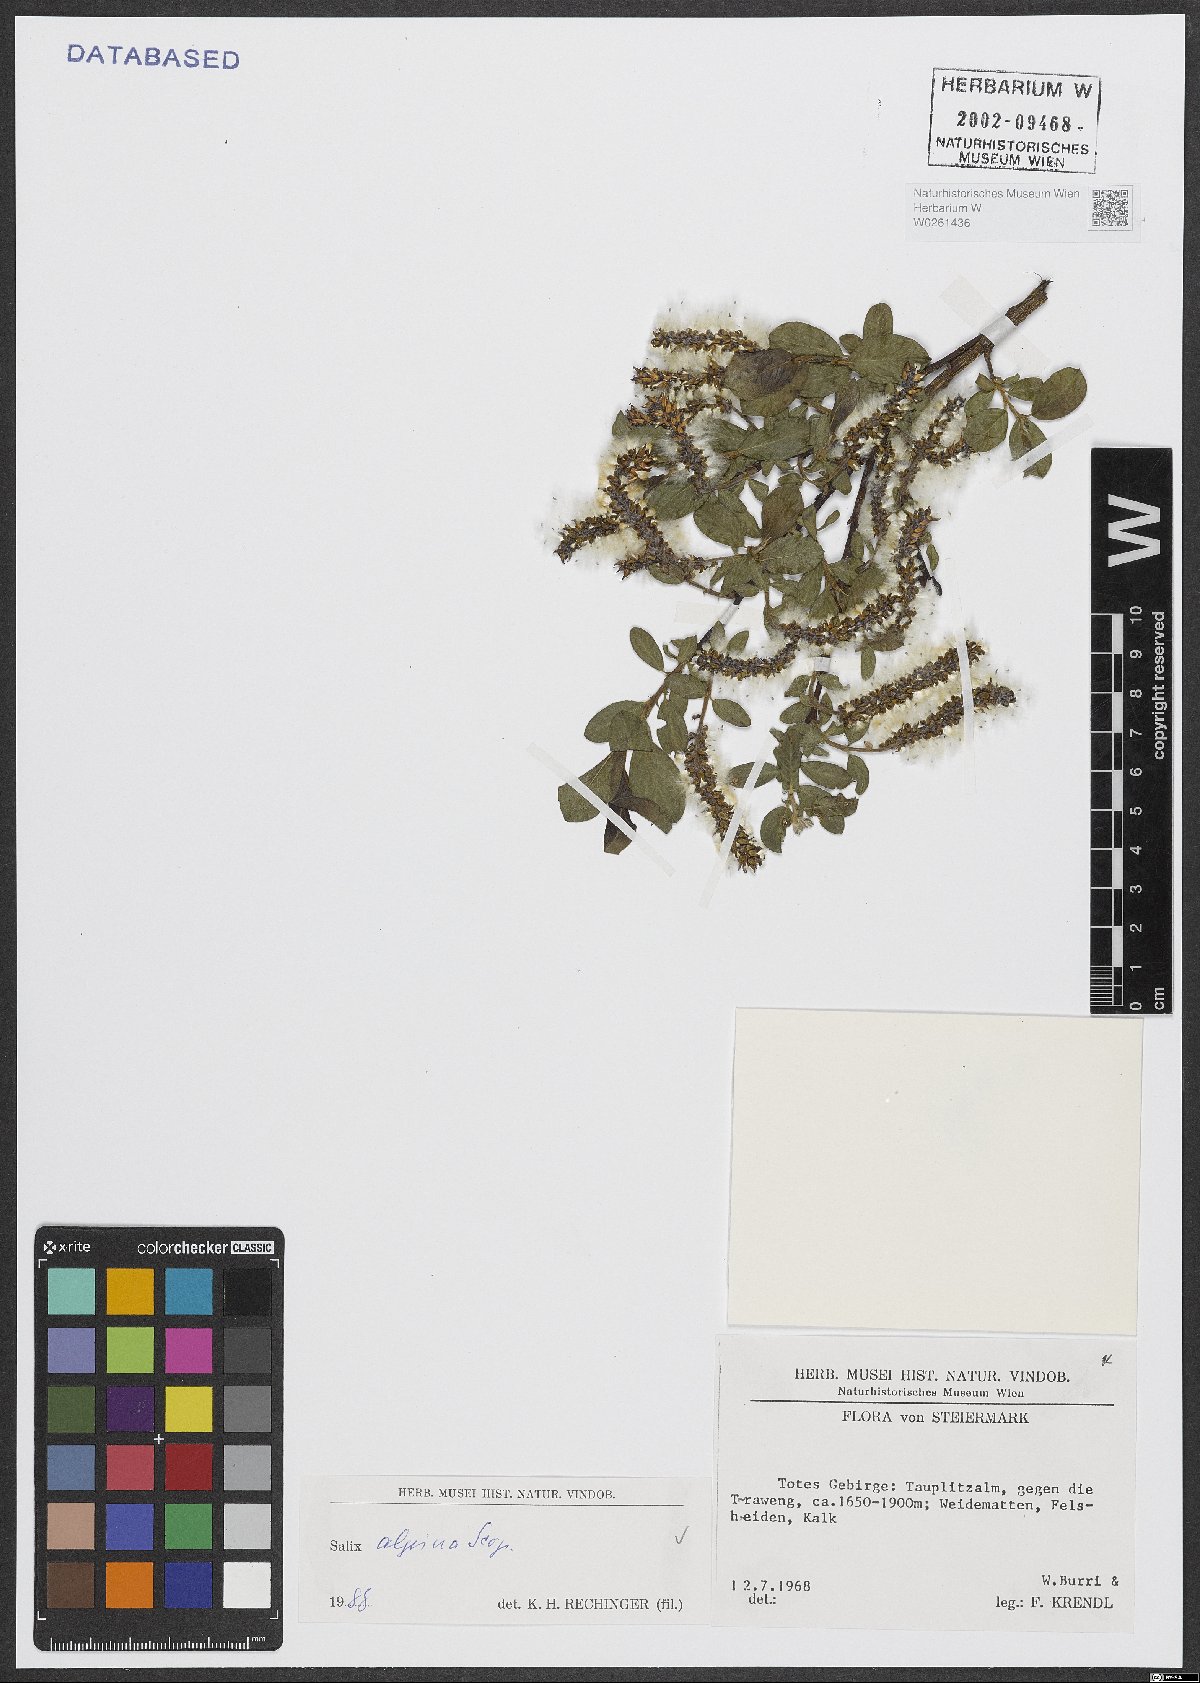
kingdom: Plantae
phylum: Tracheophyta
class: Magnoliopsida
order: Malpighiales
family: Salicaceae
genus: Salix
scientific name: Salix alpina
